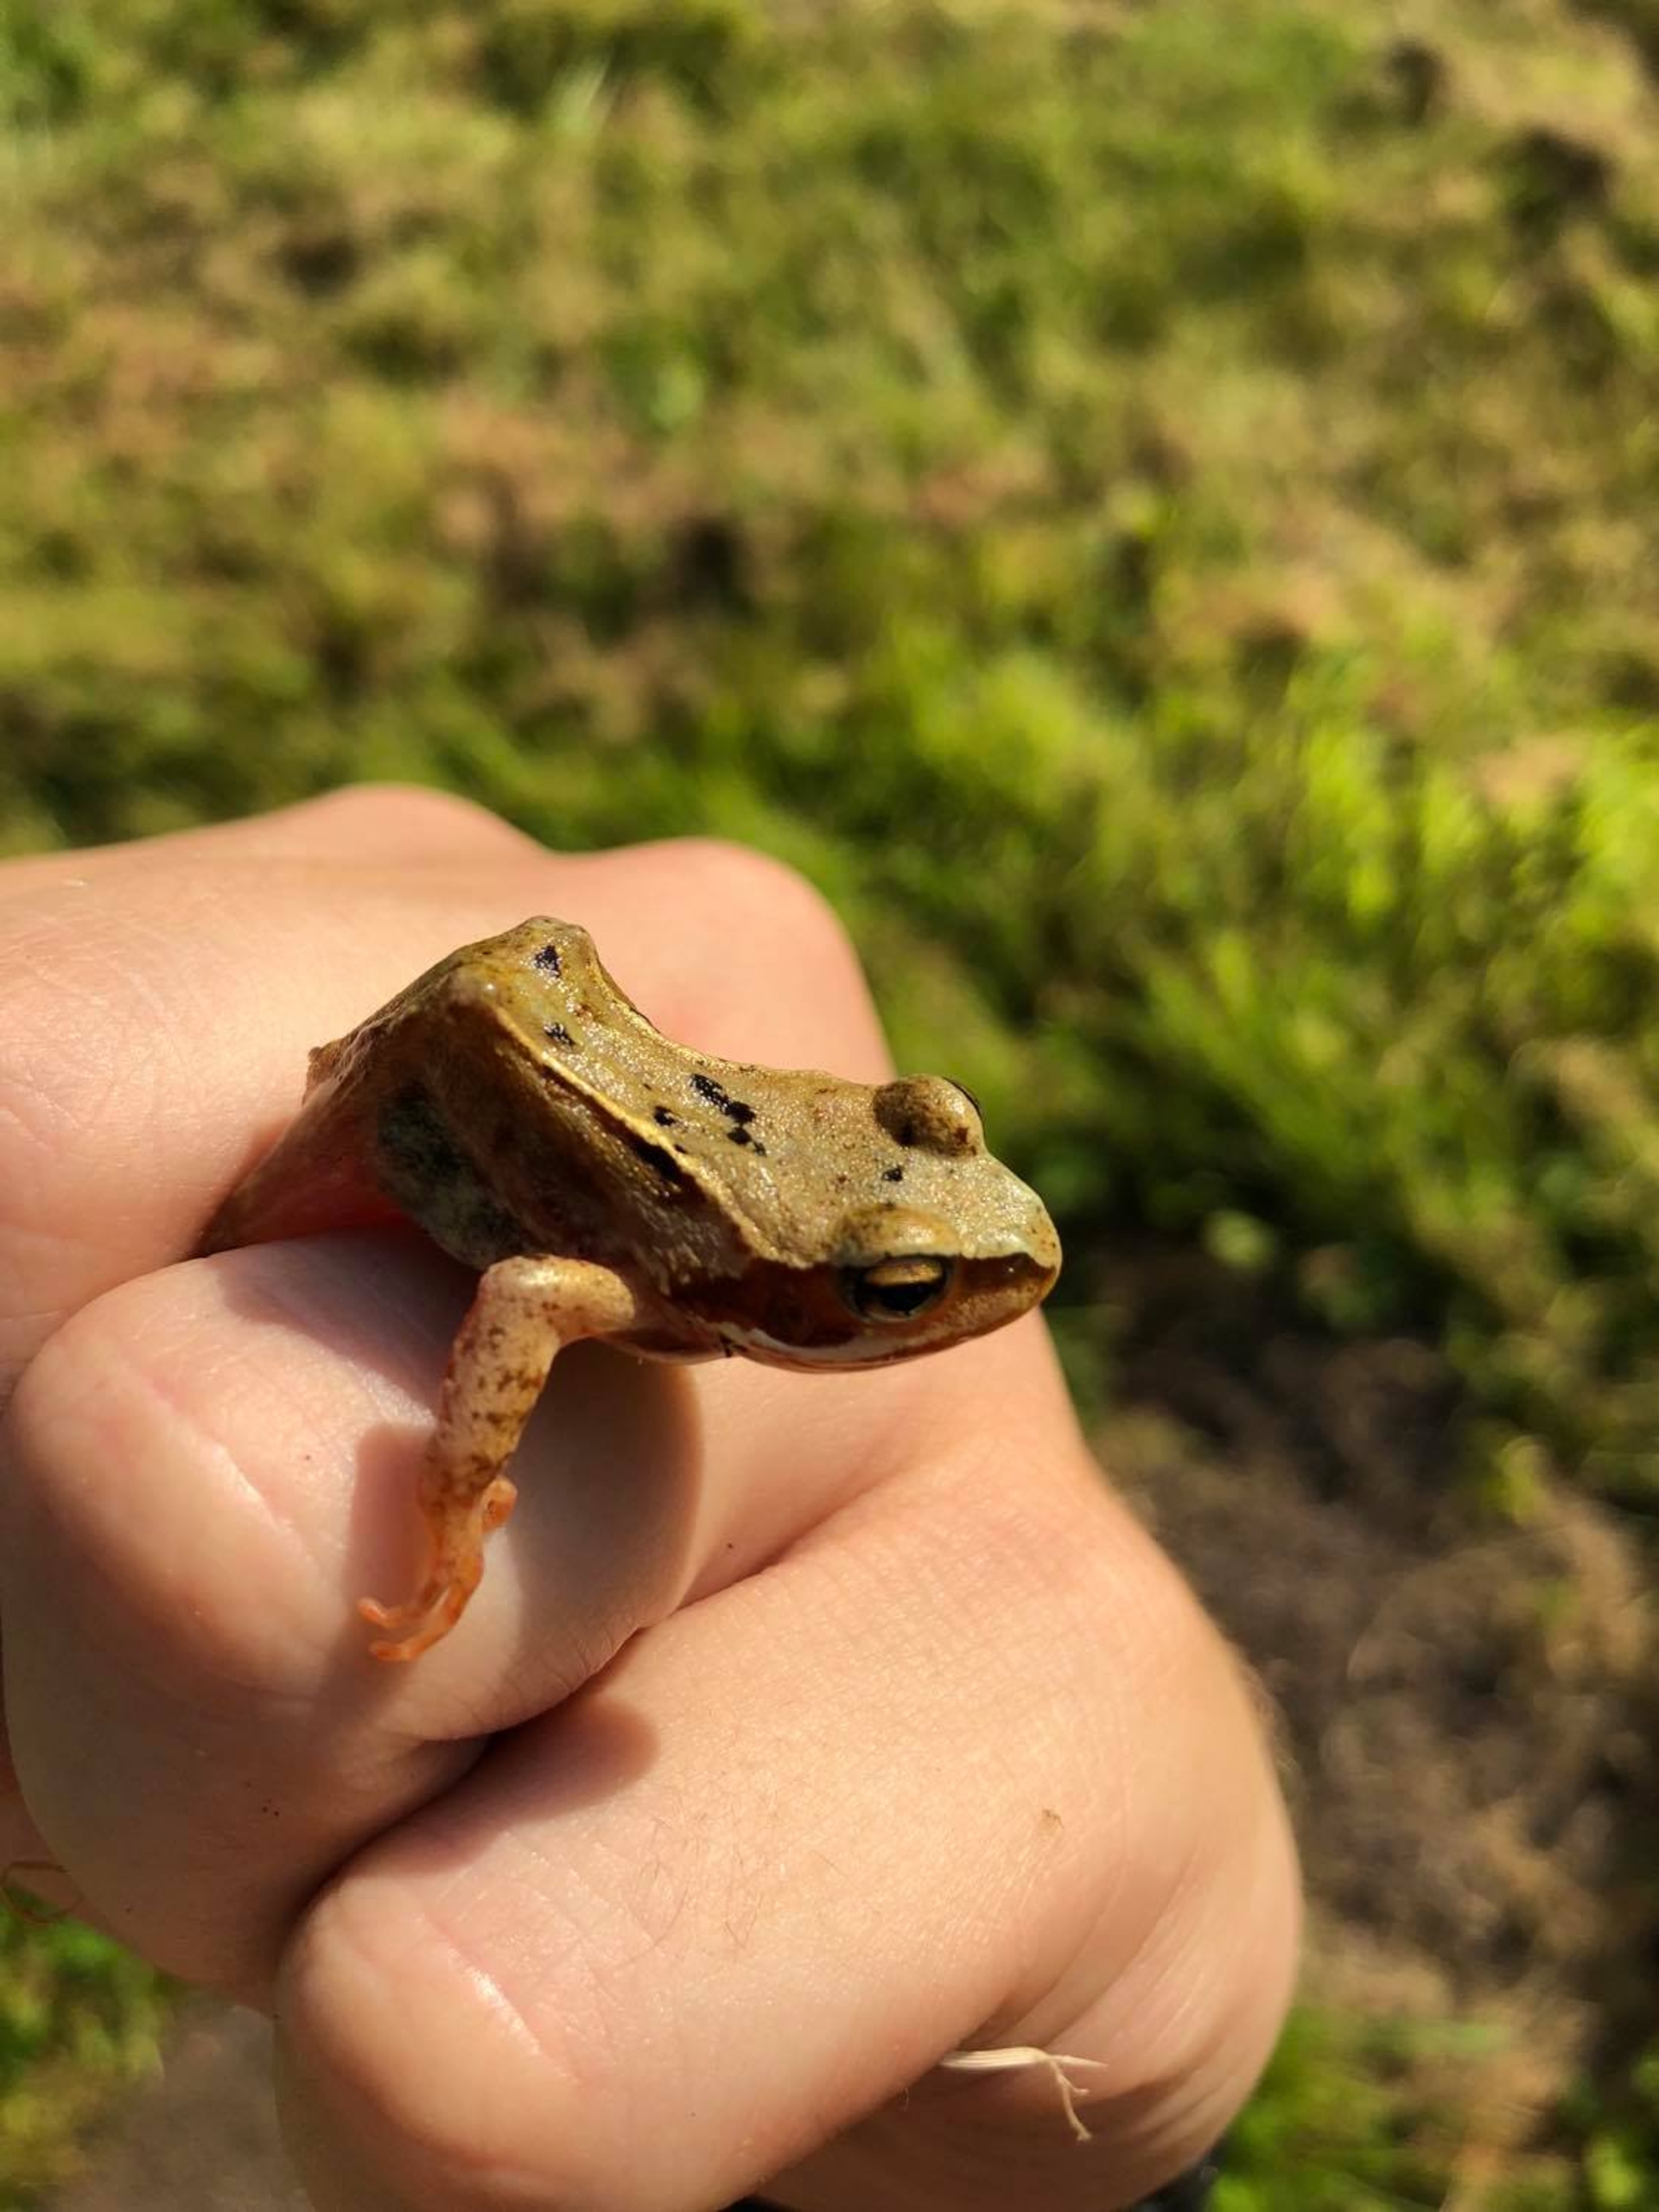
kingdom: Animalia
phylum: Chordata
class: Amphibia
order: Anura
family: Ranidae
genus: Rana
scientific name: Rana temporaria
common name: Butsnudet frø
